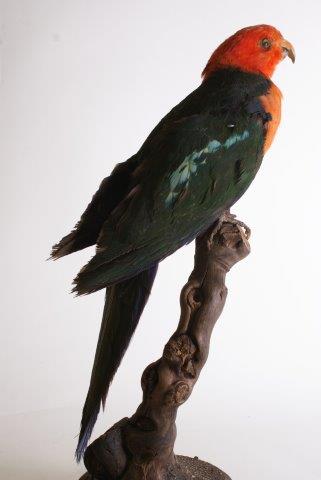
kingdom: Animalia
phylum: Chordata
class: Aves
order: Psittaciformes
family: Psittacidae
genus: Alisterus
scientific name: Alisterus scapularis
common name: Australian king parrot
